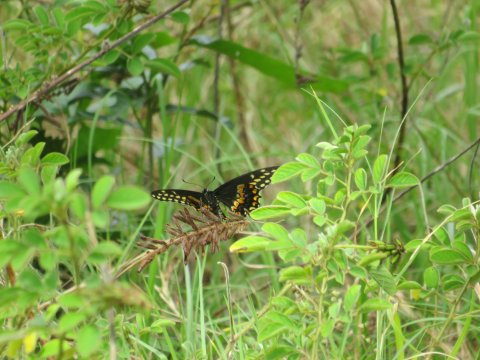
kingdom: Animalia
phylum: Arthropoda
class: Insecta
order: Lepidoptera
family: Papilionidae
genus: Papilio
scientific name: Papilio polyxenes
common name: Black Swallowtail
